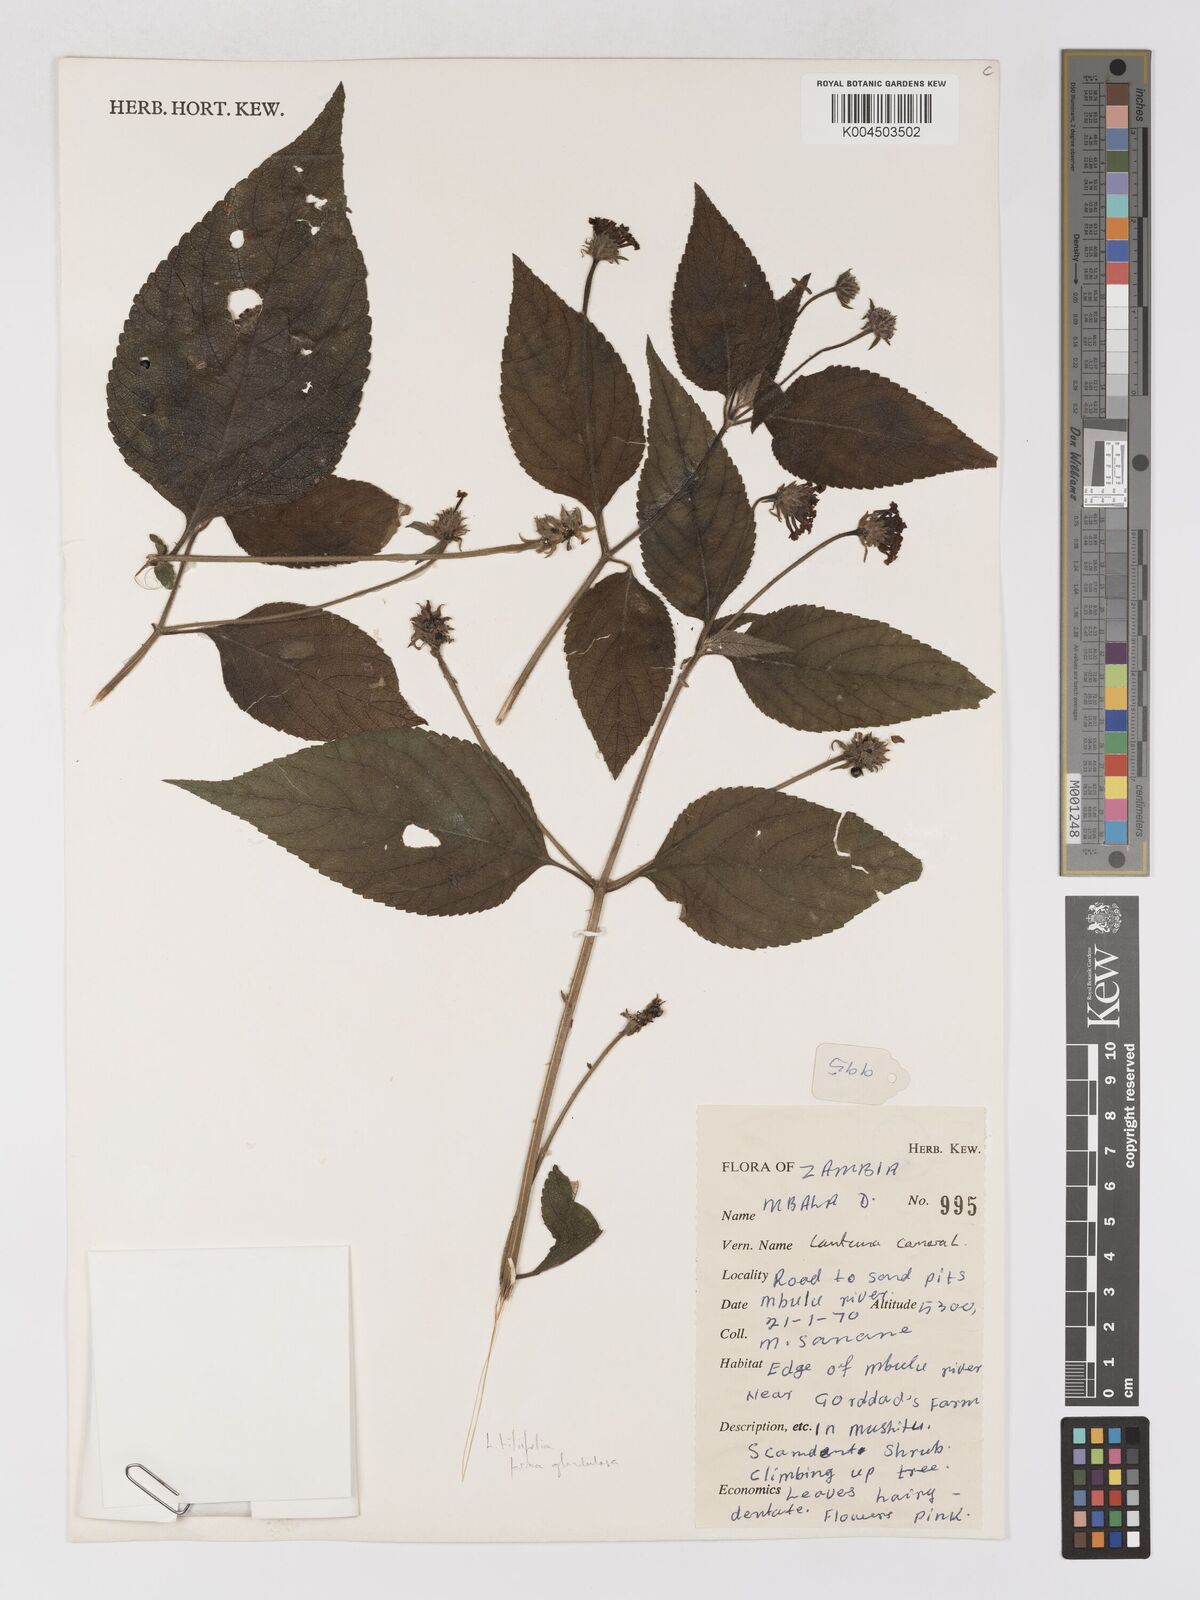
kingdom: Plantae
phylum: Tracheophyta
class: Magnoliopsida
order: Lamiales
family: Verbenaceae
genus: Lantana
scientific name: Lantana horrida
